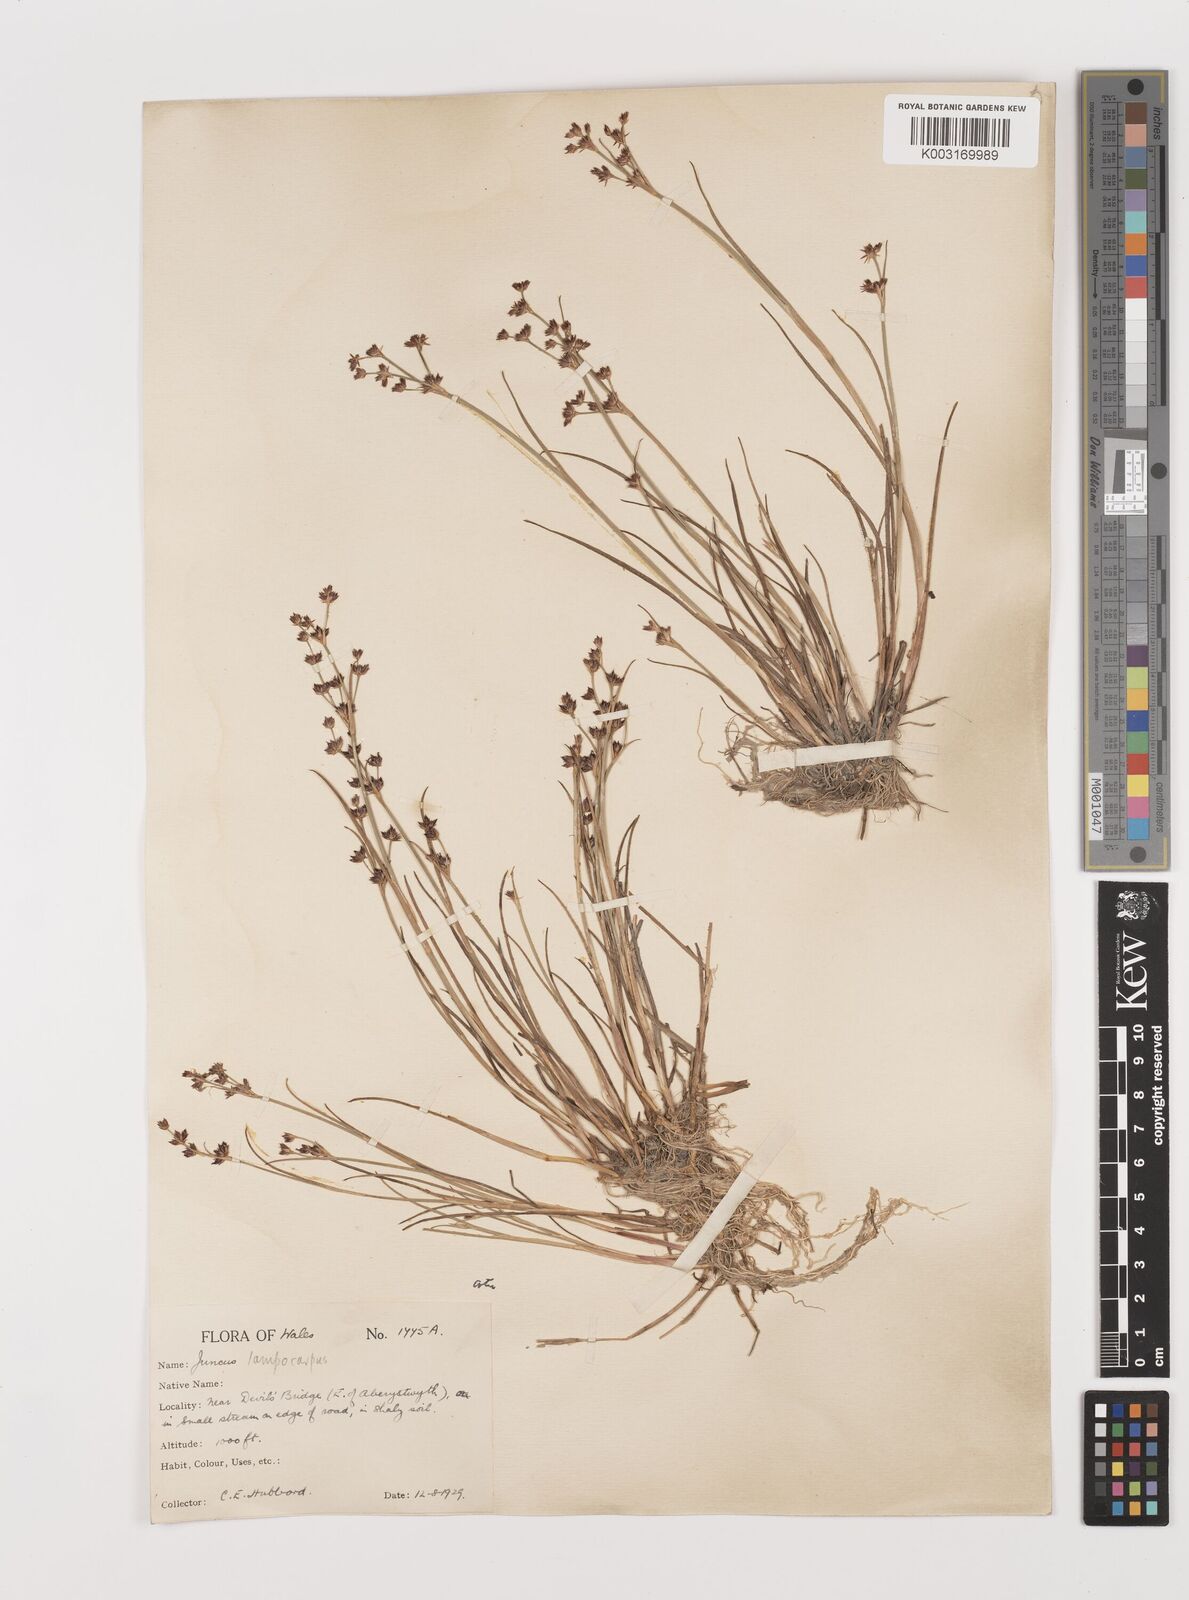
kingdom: Plantae
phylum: Tracheophyta
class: Liliopsida
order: Poales
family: Juncaceae
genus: Juncus
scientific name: Juncus articulatus
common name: Jointed rush
